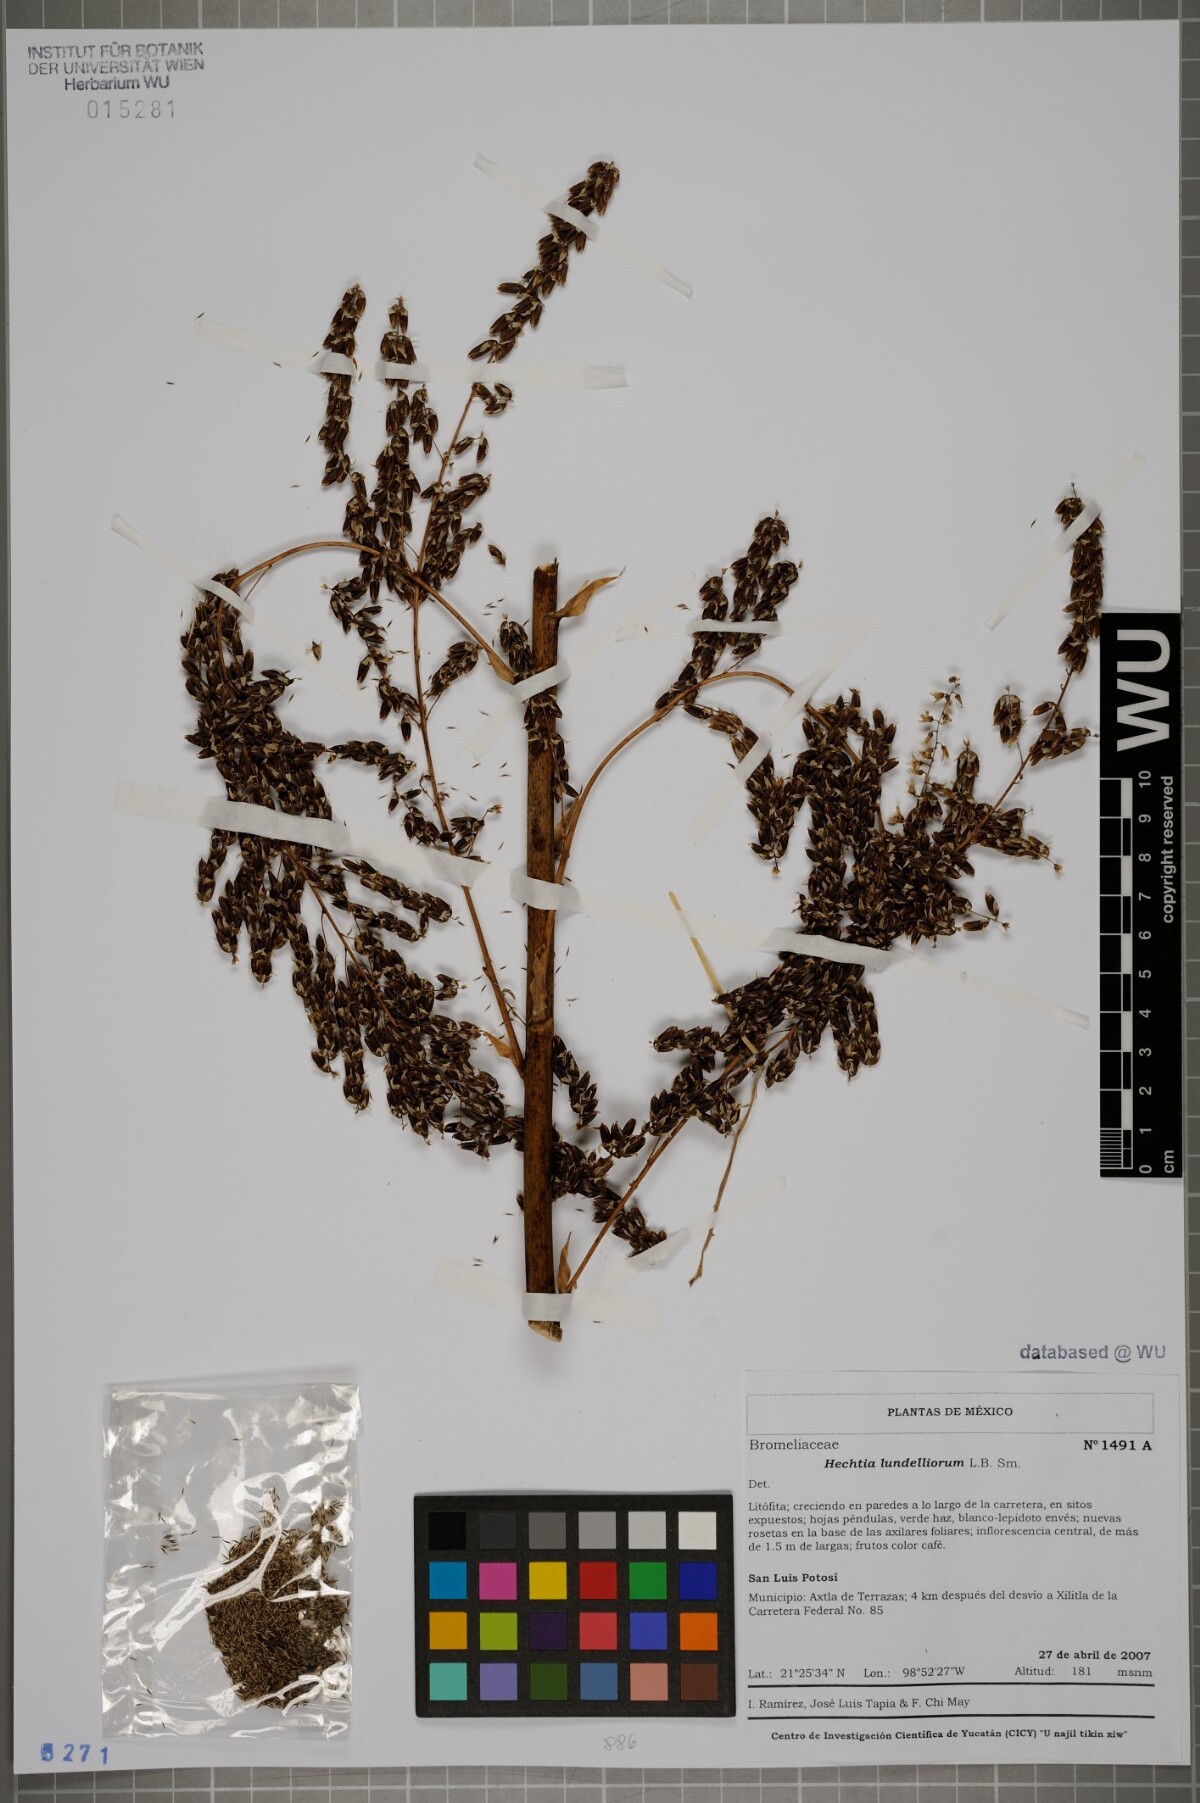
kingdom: Plantae
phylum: Tracheophyta
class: Liliopsida
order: Poales
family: Bromeliaceae
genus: Hechtia
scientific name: Hechtia lundelliorum
